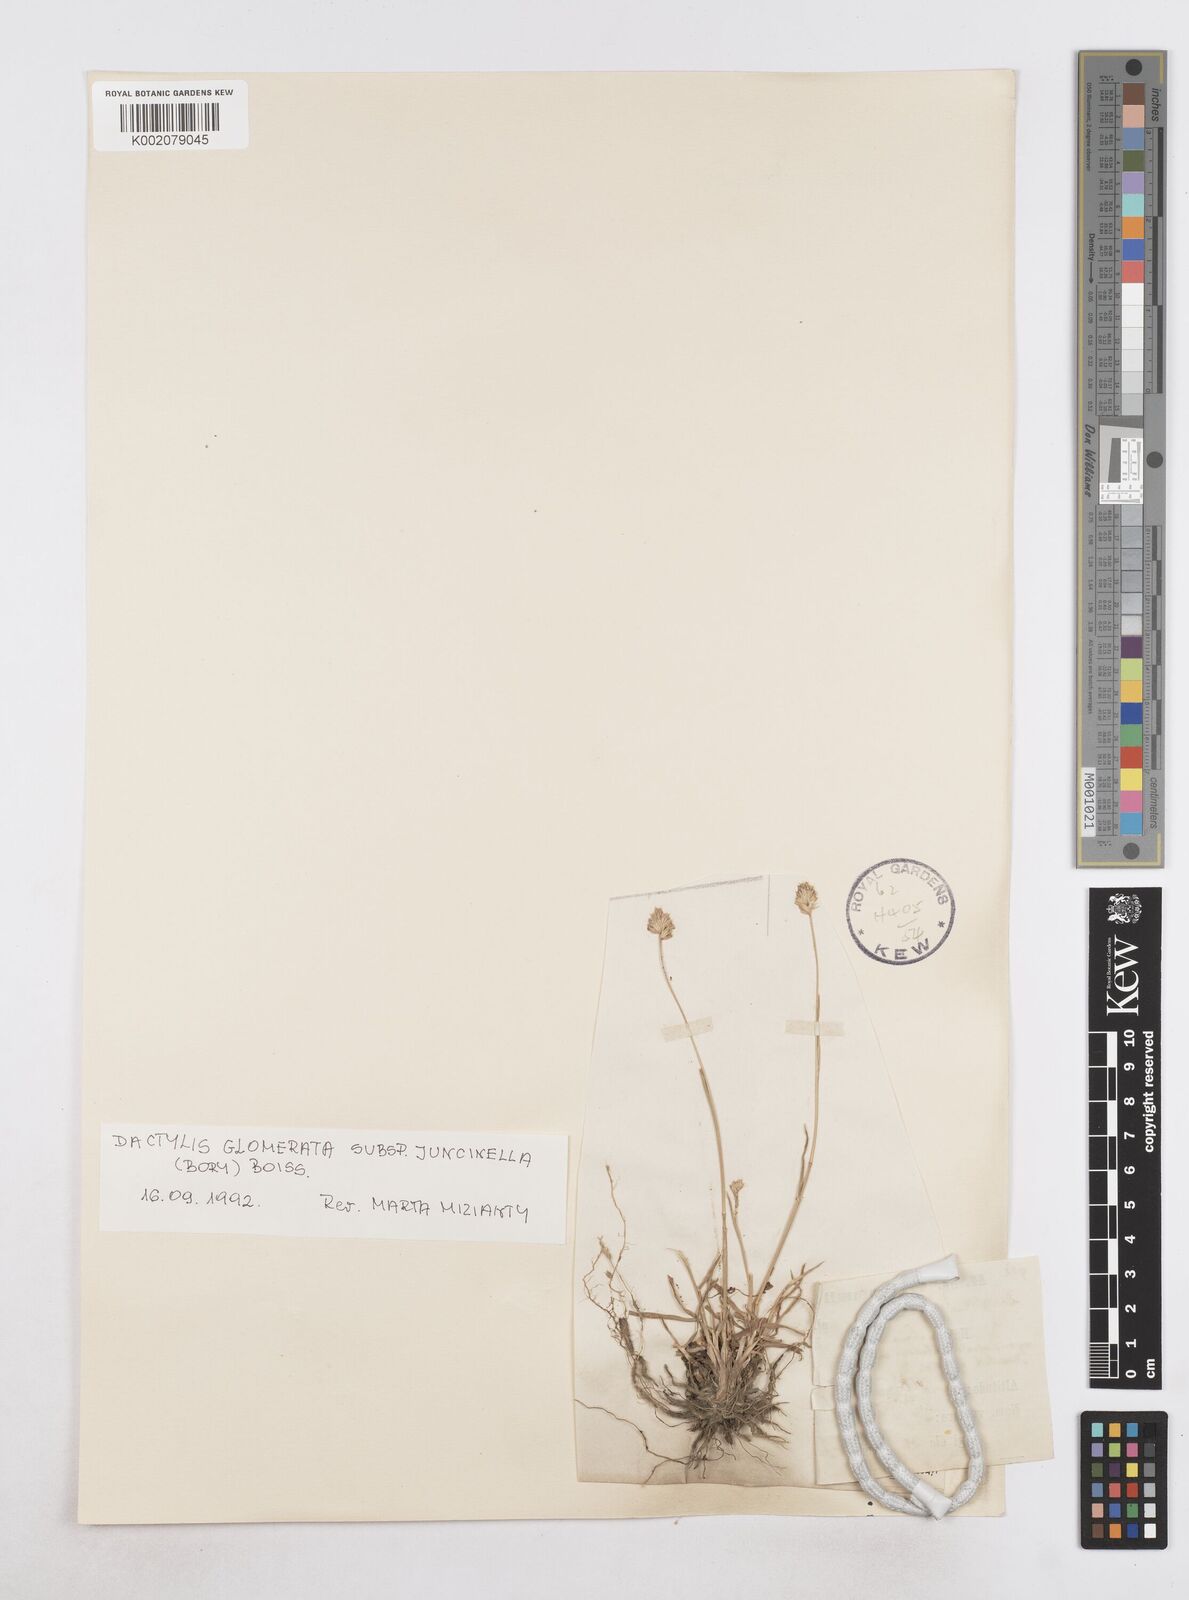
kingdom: Plantae
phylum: Tracheophyta
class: Liliopsida
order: Poales
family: Poaceae
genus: Dactylis
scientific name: Dactylis glomerata
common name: Orchardgrass
